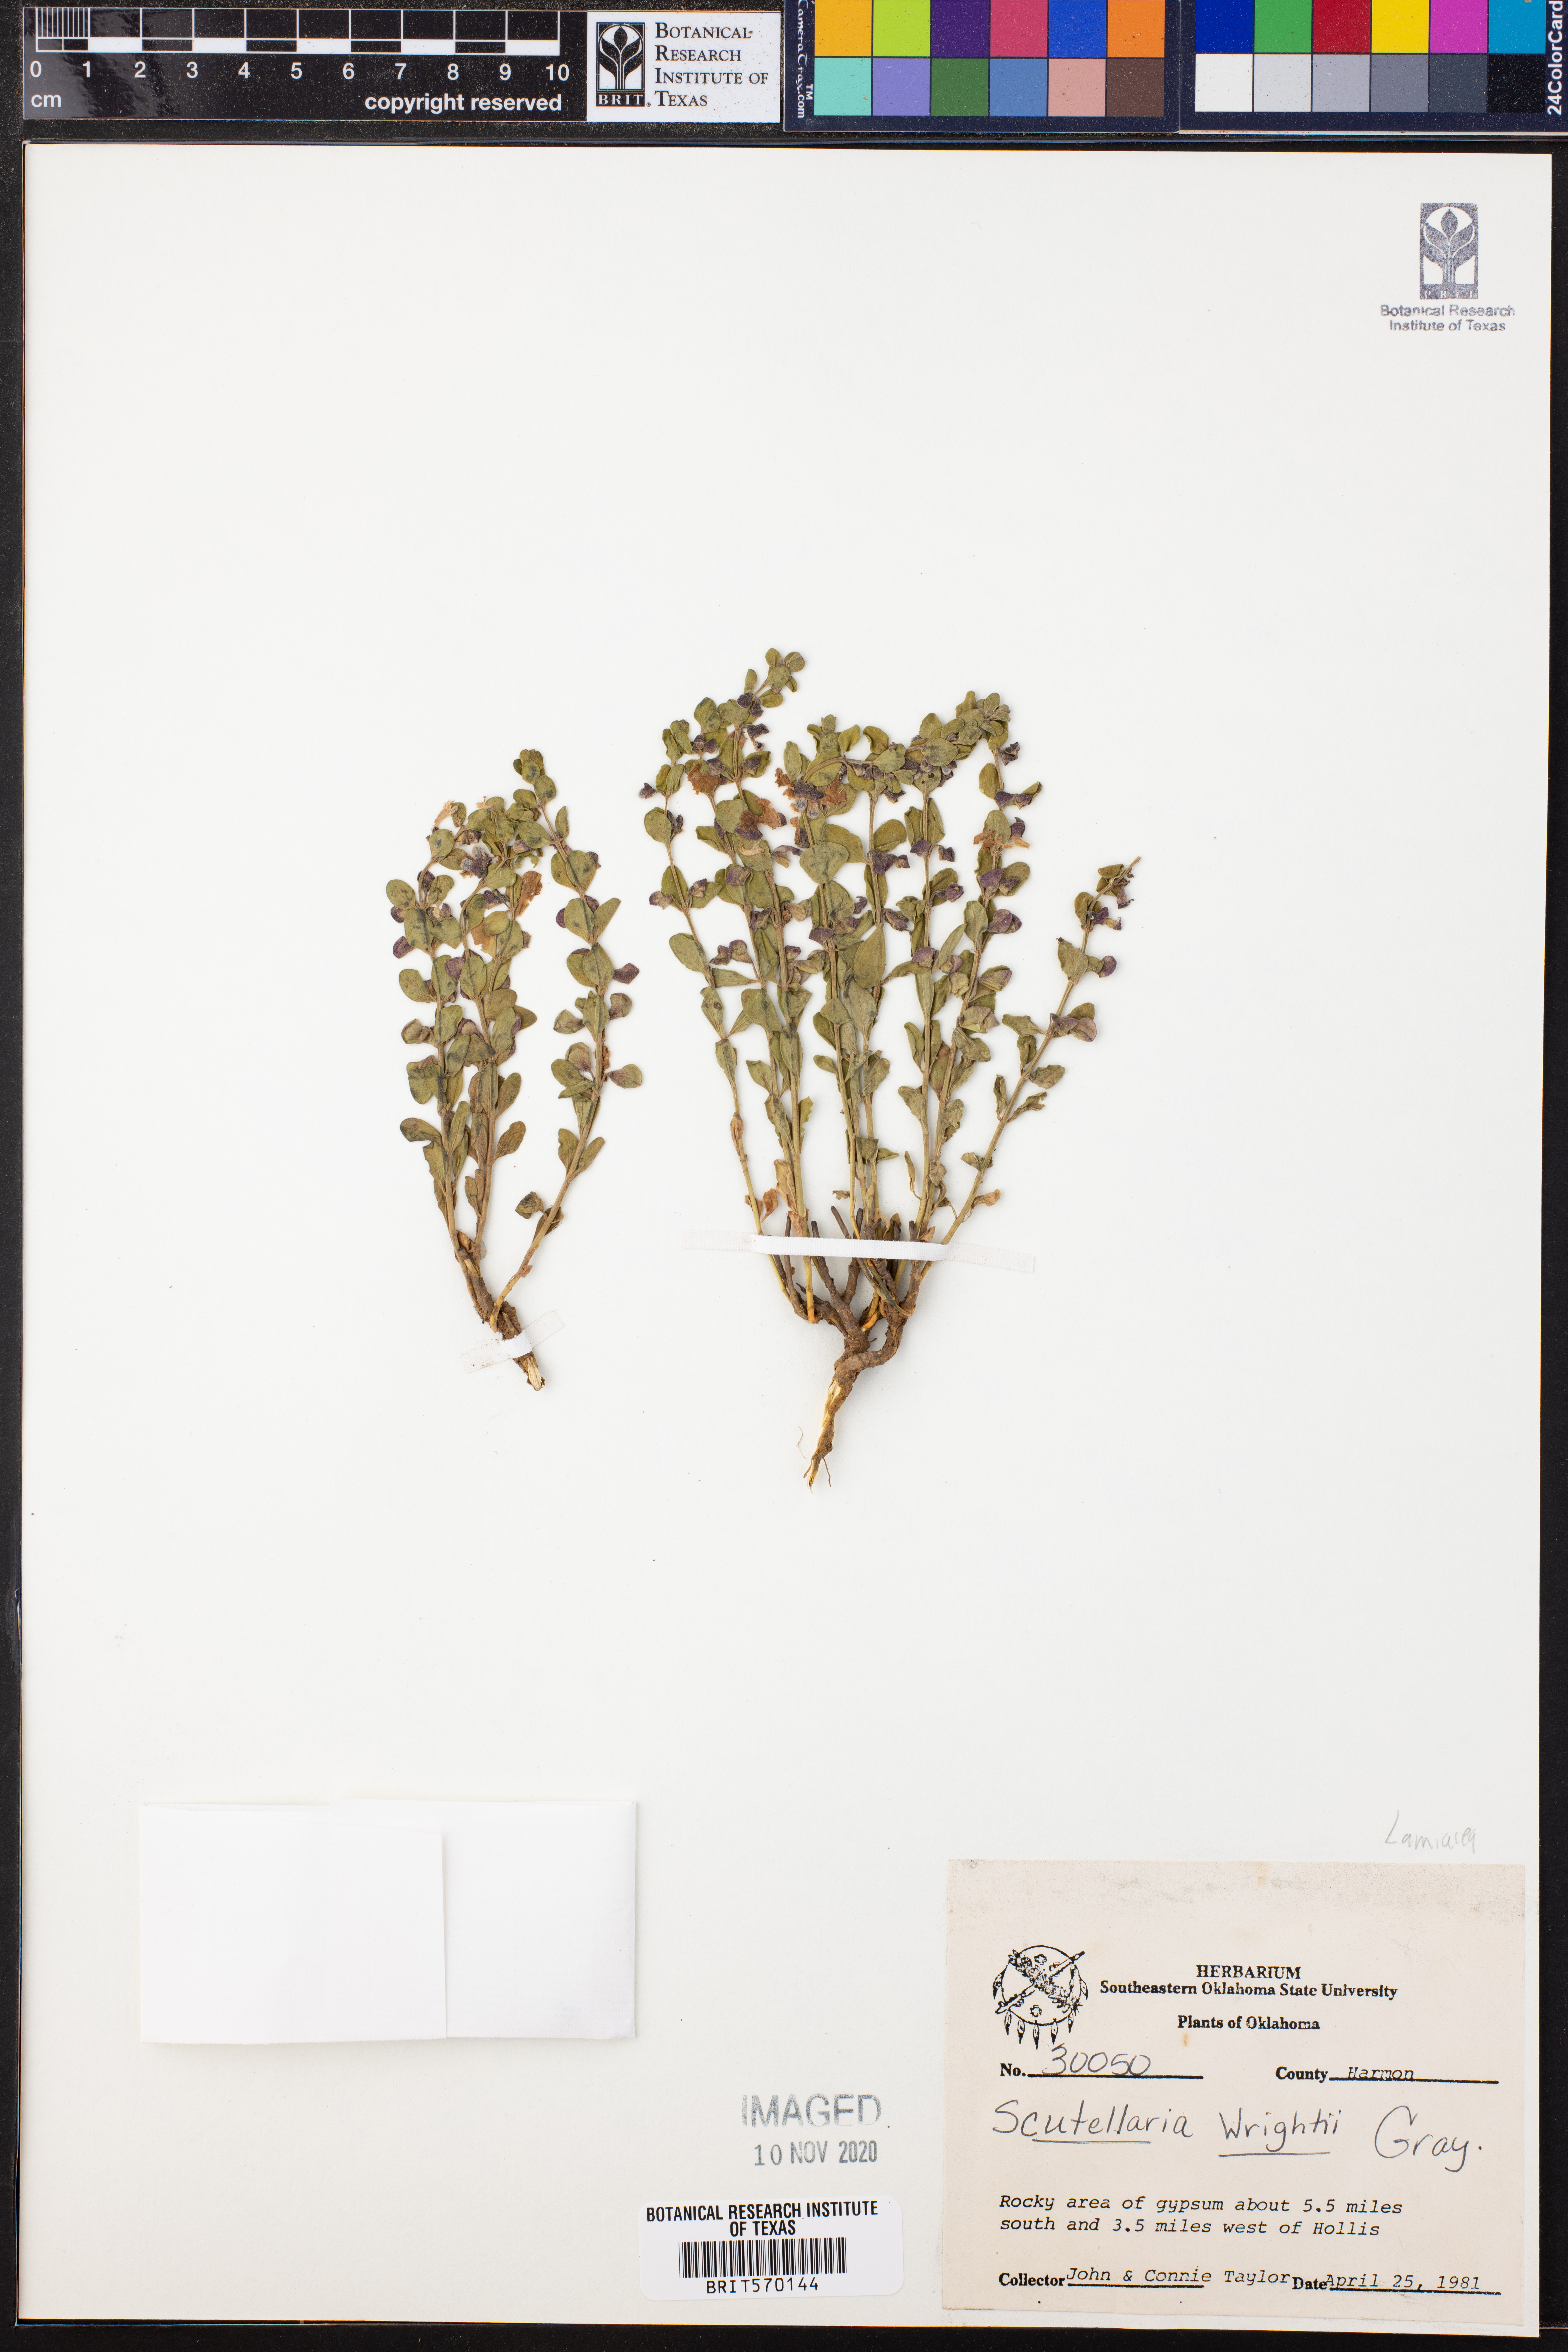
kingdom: Plantae
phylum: Tracheophyta
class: Magnoliopsida
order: Lamiales
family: Lamiaceae
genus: Scutellaria
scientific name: Scutellaria wrightii
